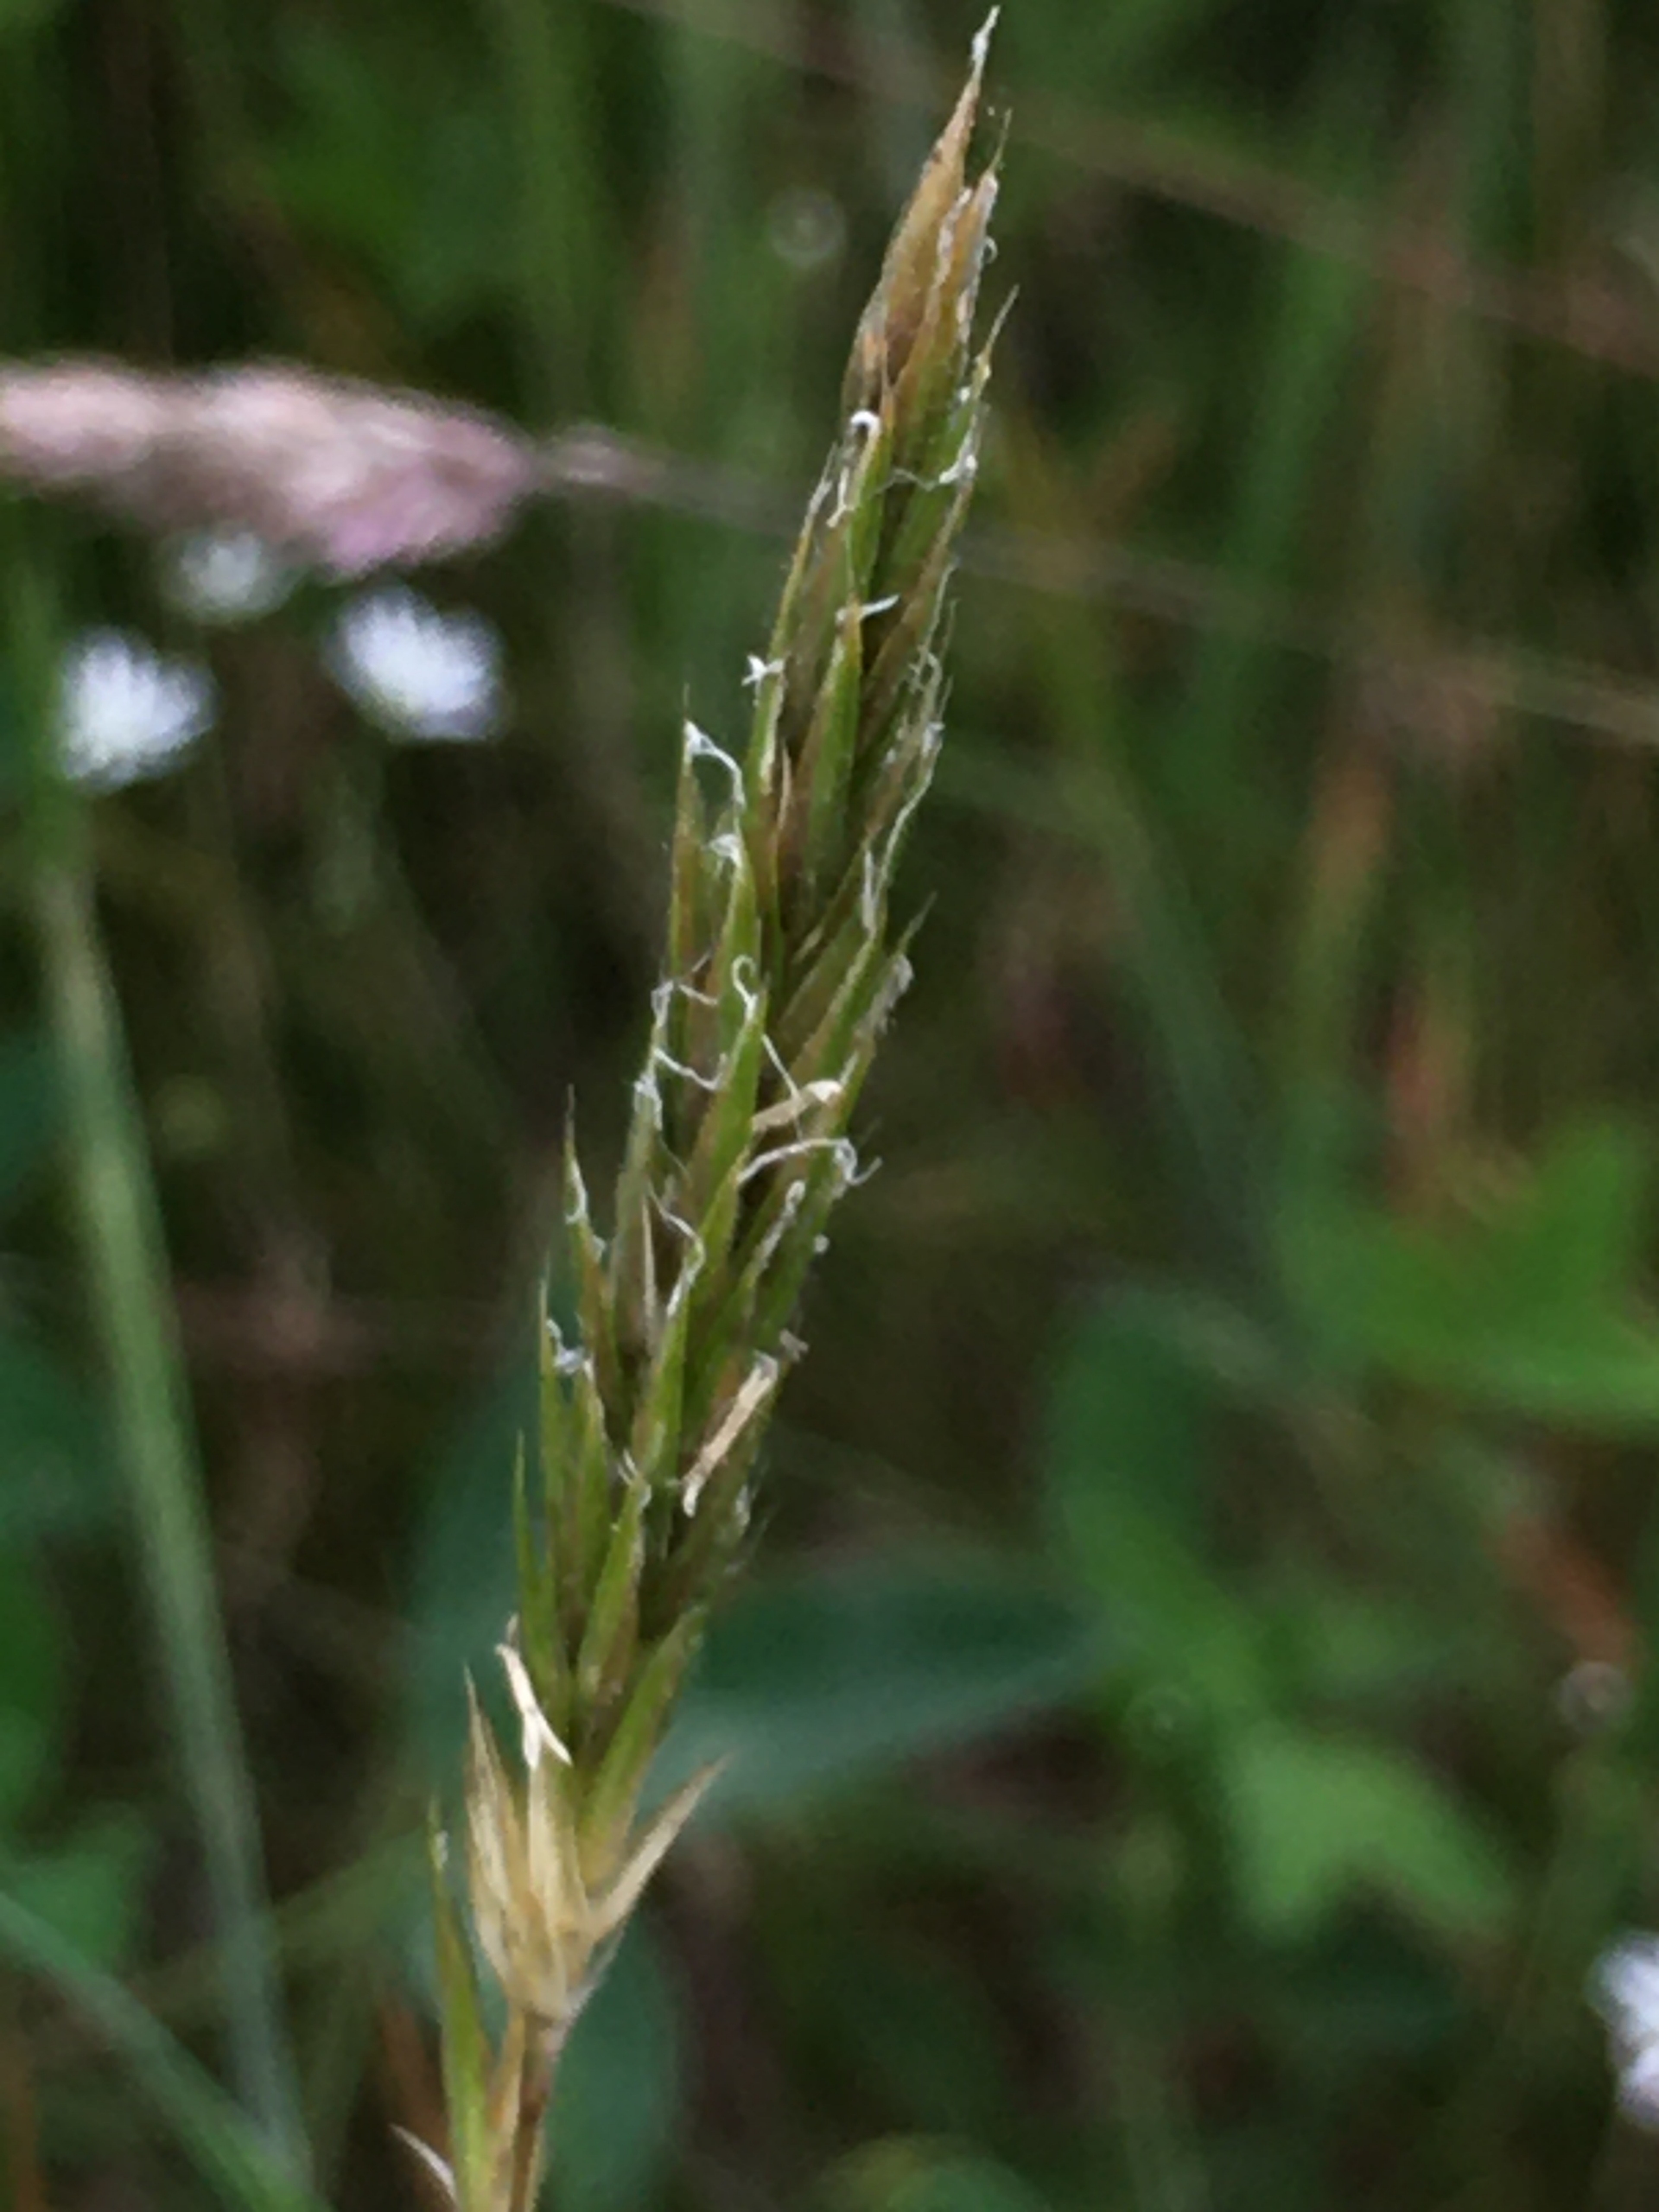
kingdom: Plantae
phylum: Tracheophyta
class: Liliopsida
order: Poales
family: Poaceae
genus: Anthoxanthum
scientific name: Anthoxanthum odoratum
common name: Vellugtende gulaks
